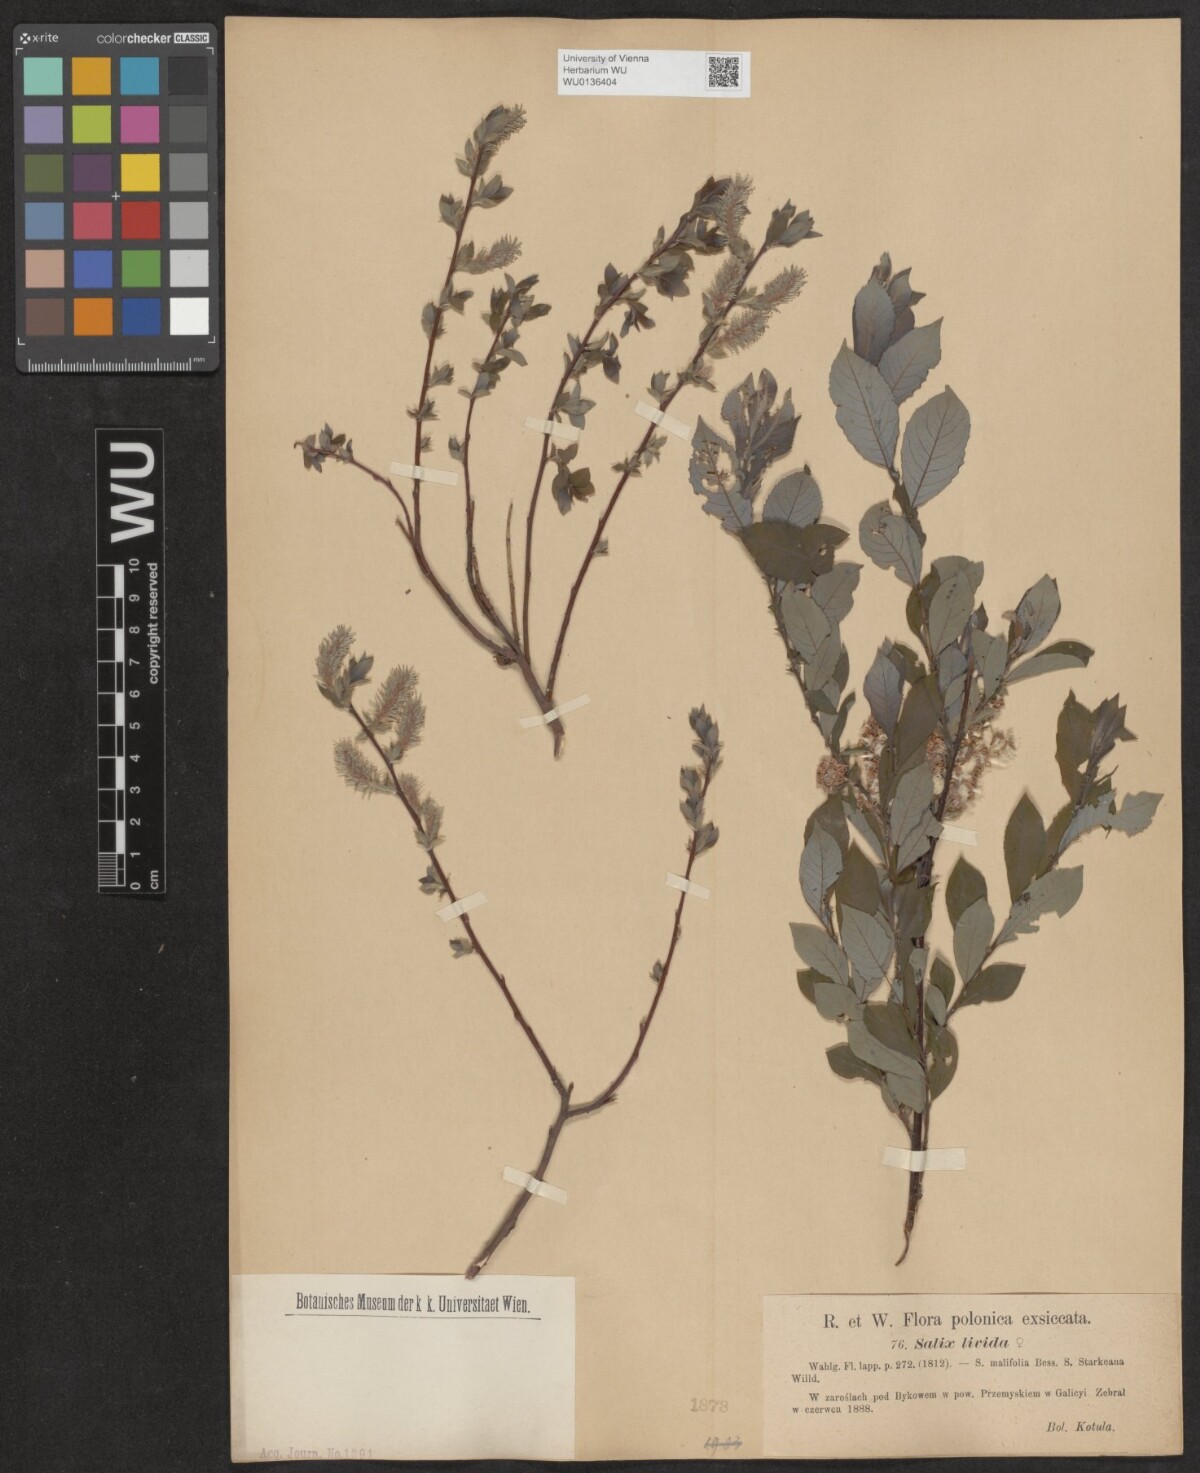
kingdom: Plantae
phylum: Tracheophyta
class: Magnoliopsida
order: Malpighiales
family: Salicaceae
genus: Salix
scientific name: Salix lanata
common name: Woolly willow
